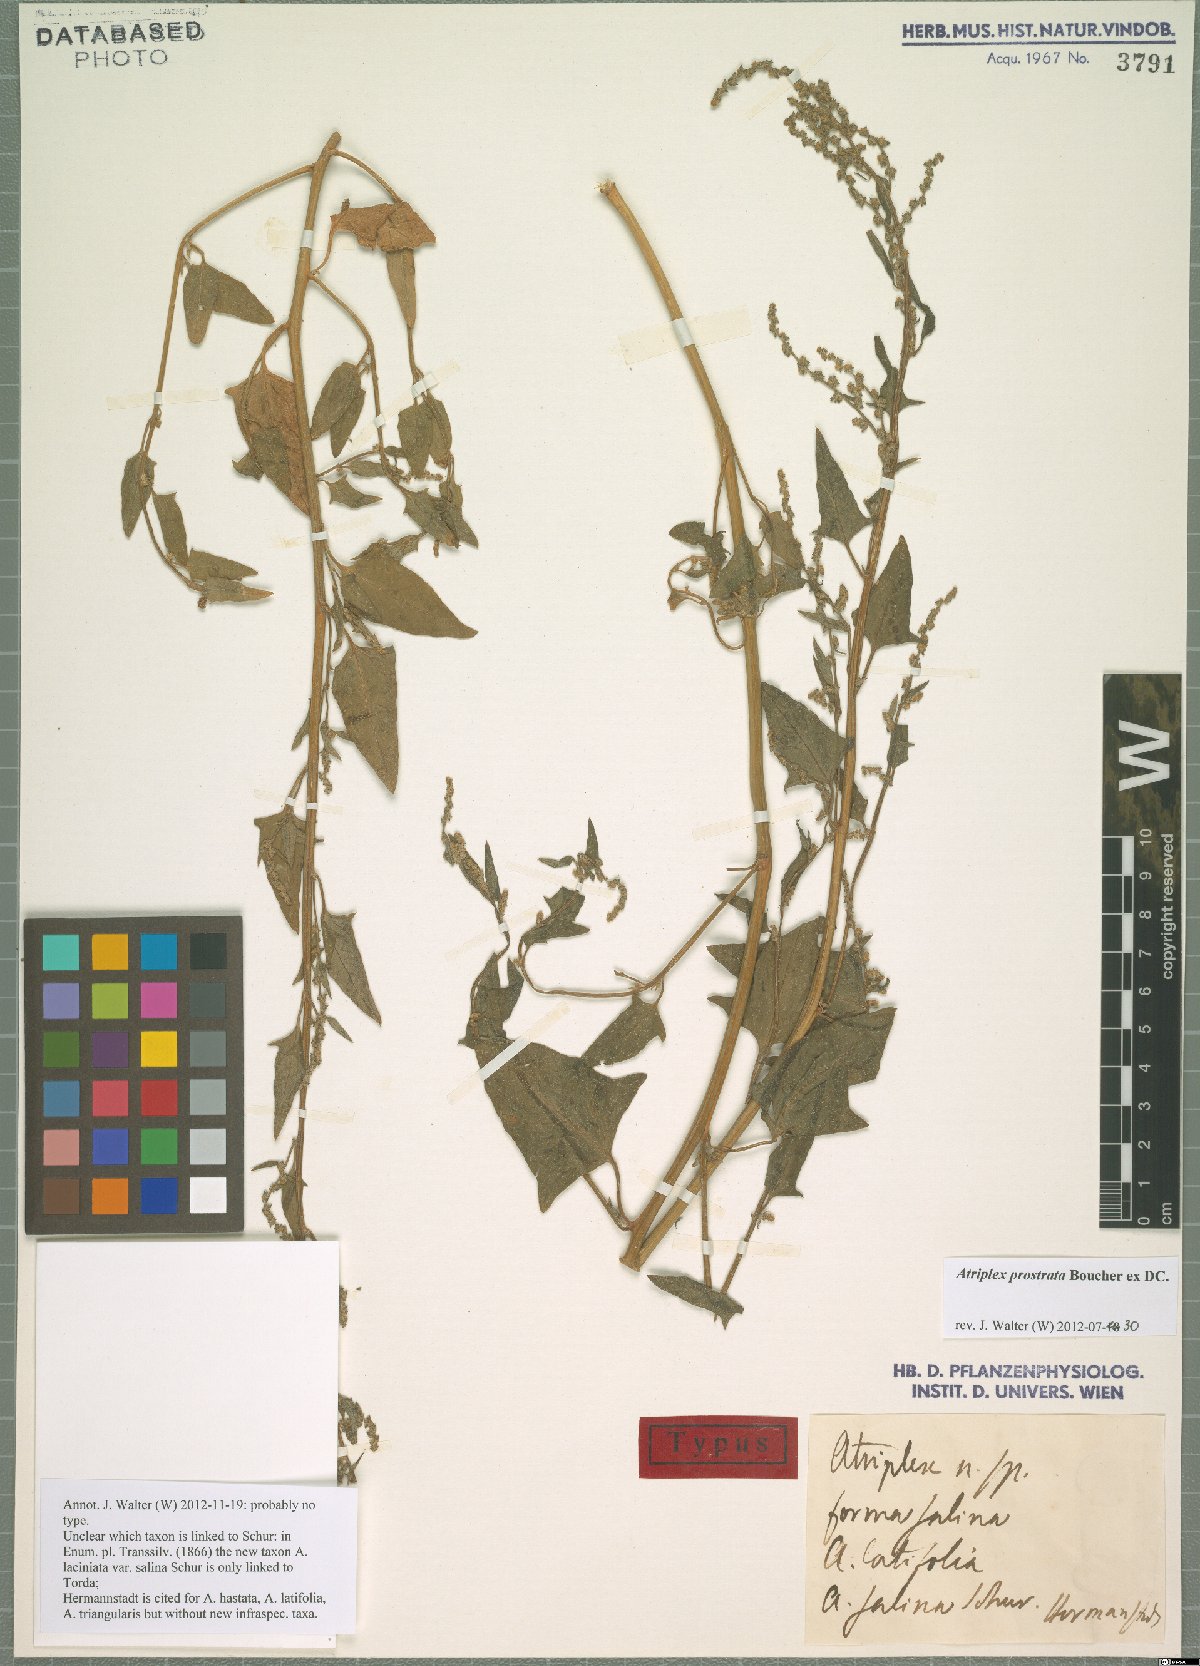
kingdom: Plantae
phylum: Tracheophyta
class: Magnoliopsida
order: Caryophyllales
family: Amaranthaceae
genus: Atriplex
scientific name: Atriplex prostrata
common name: Spear-leaved orache
